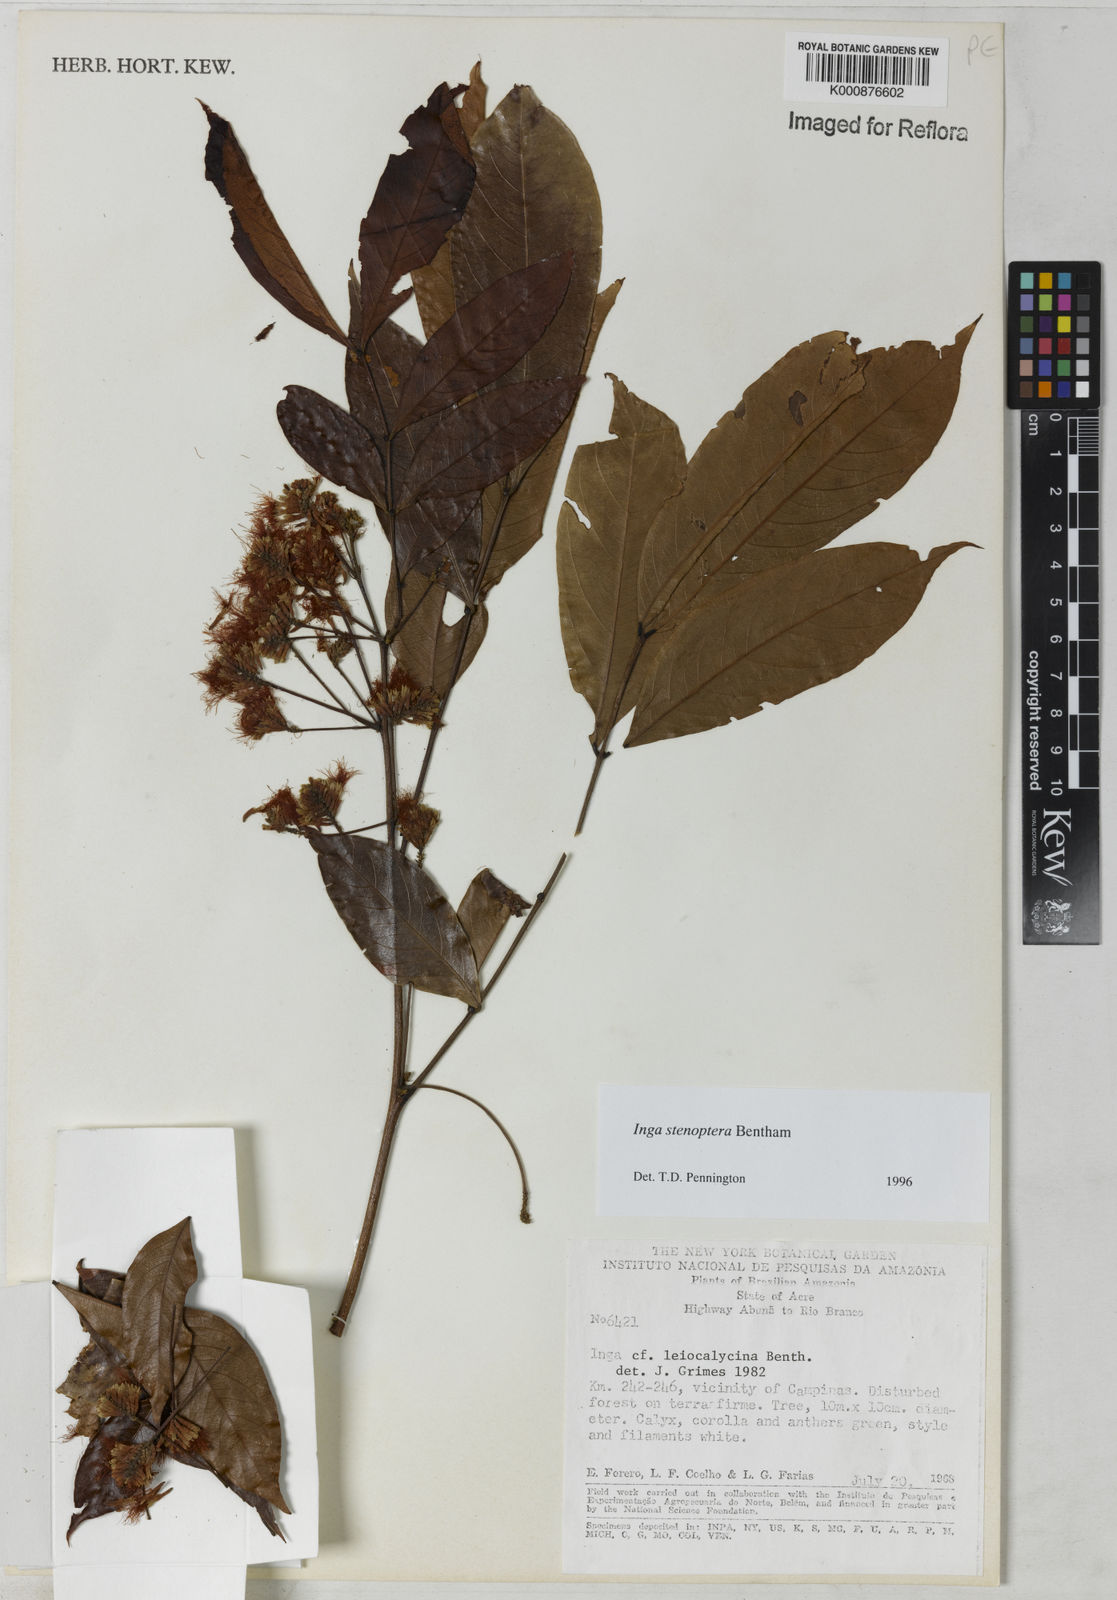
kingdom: Plantae
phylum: Tracheophyta
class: Magnoliopsida
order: Fabales
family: Fabaceae
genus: Inga
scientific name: Inga stenoptera
